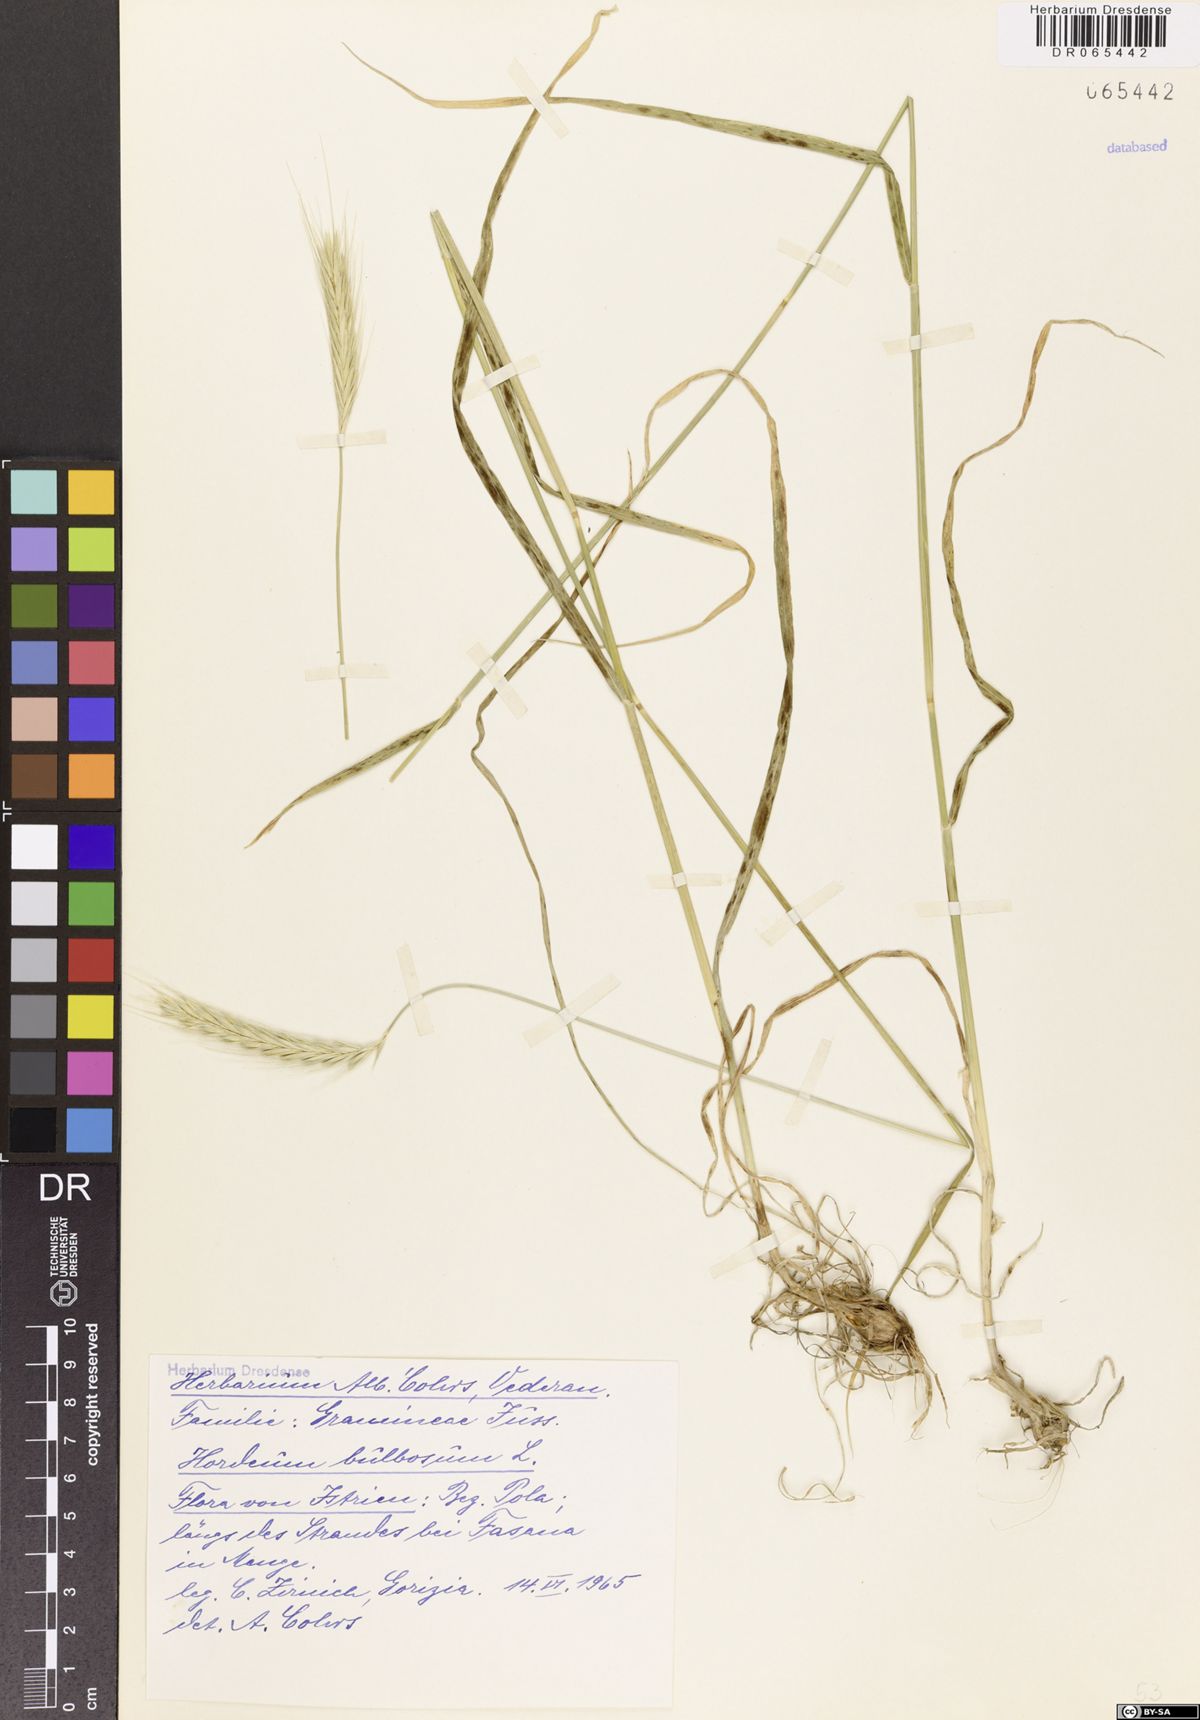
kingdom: Plantae
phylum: Tracheophyta
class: Liliopsida
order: Poales
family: Poaceae
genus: Hordeum
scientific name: Hordeum bulbosum
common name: Bulbous barley
